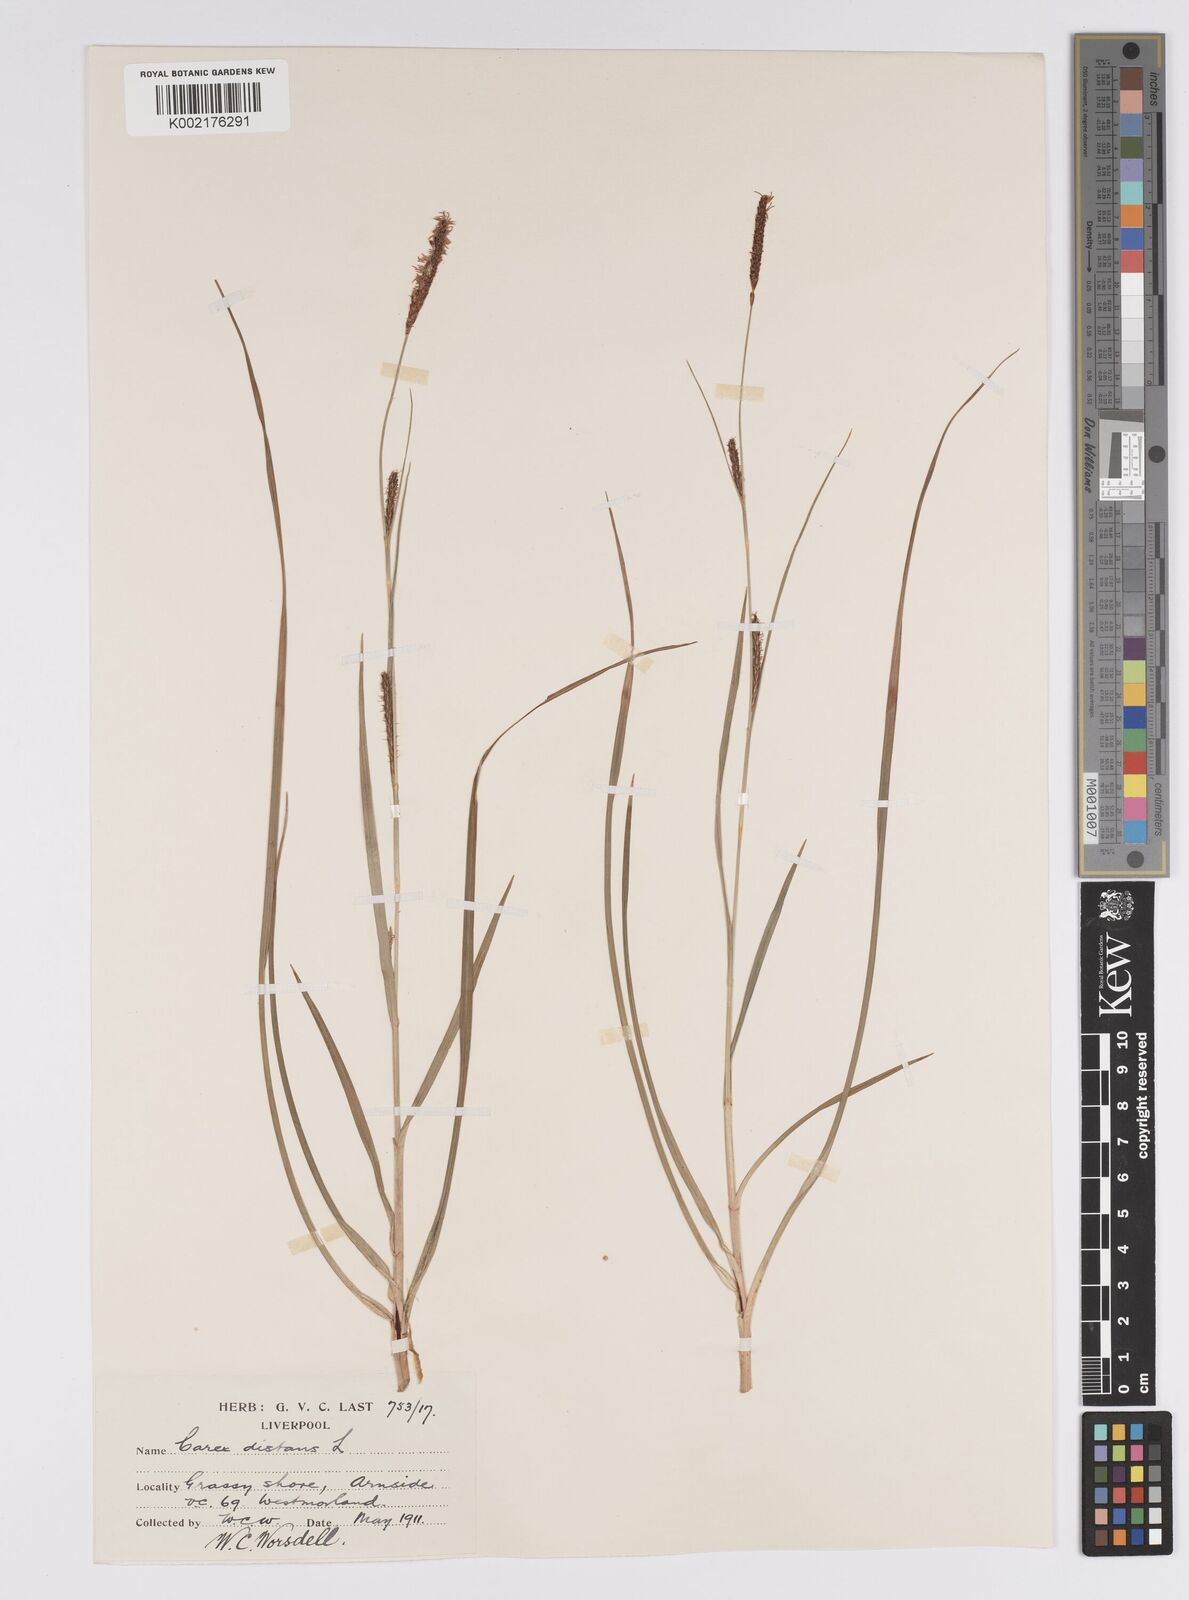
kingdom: Plantae
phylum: Tracheophyta
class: Liliopsida
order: Poales
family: Cyperaceae
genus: Carex
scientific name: Carex distans
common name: Distant sedge
